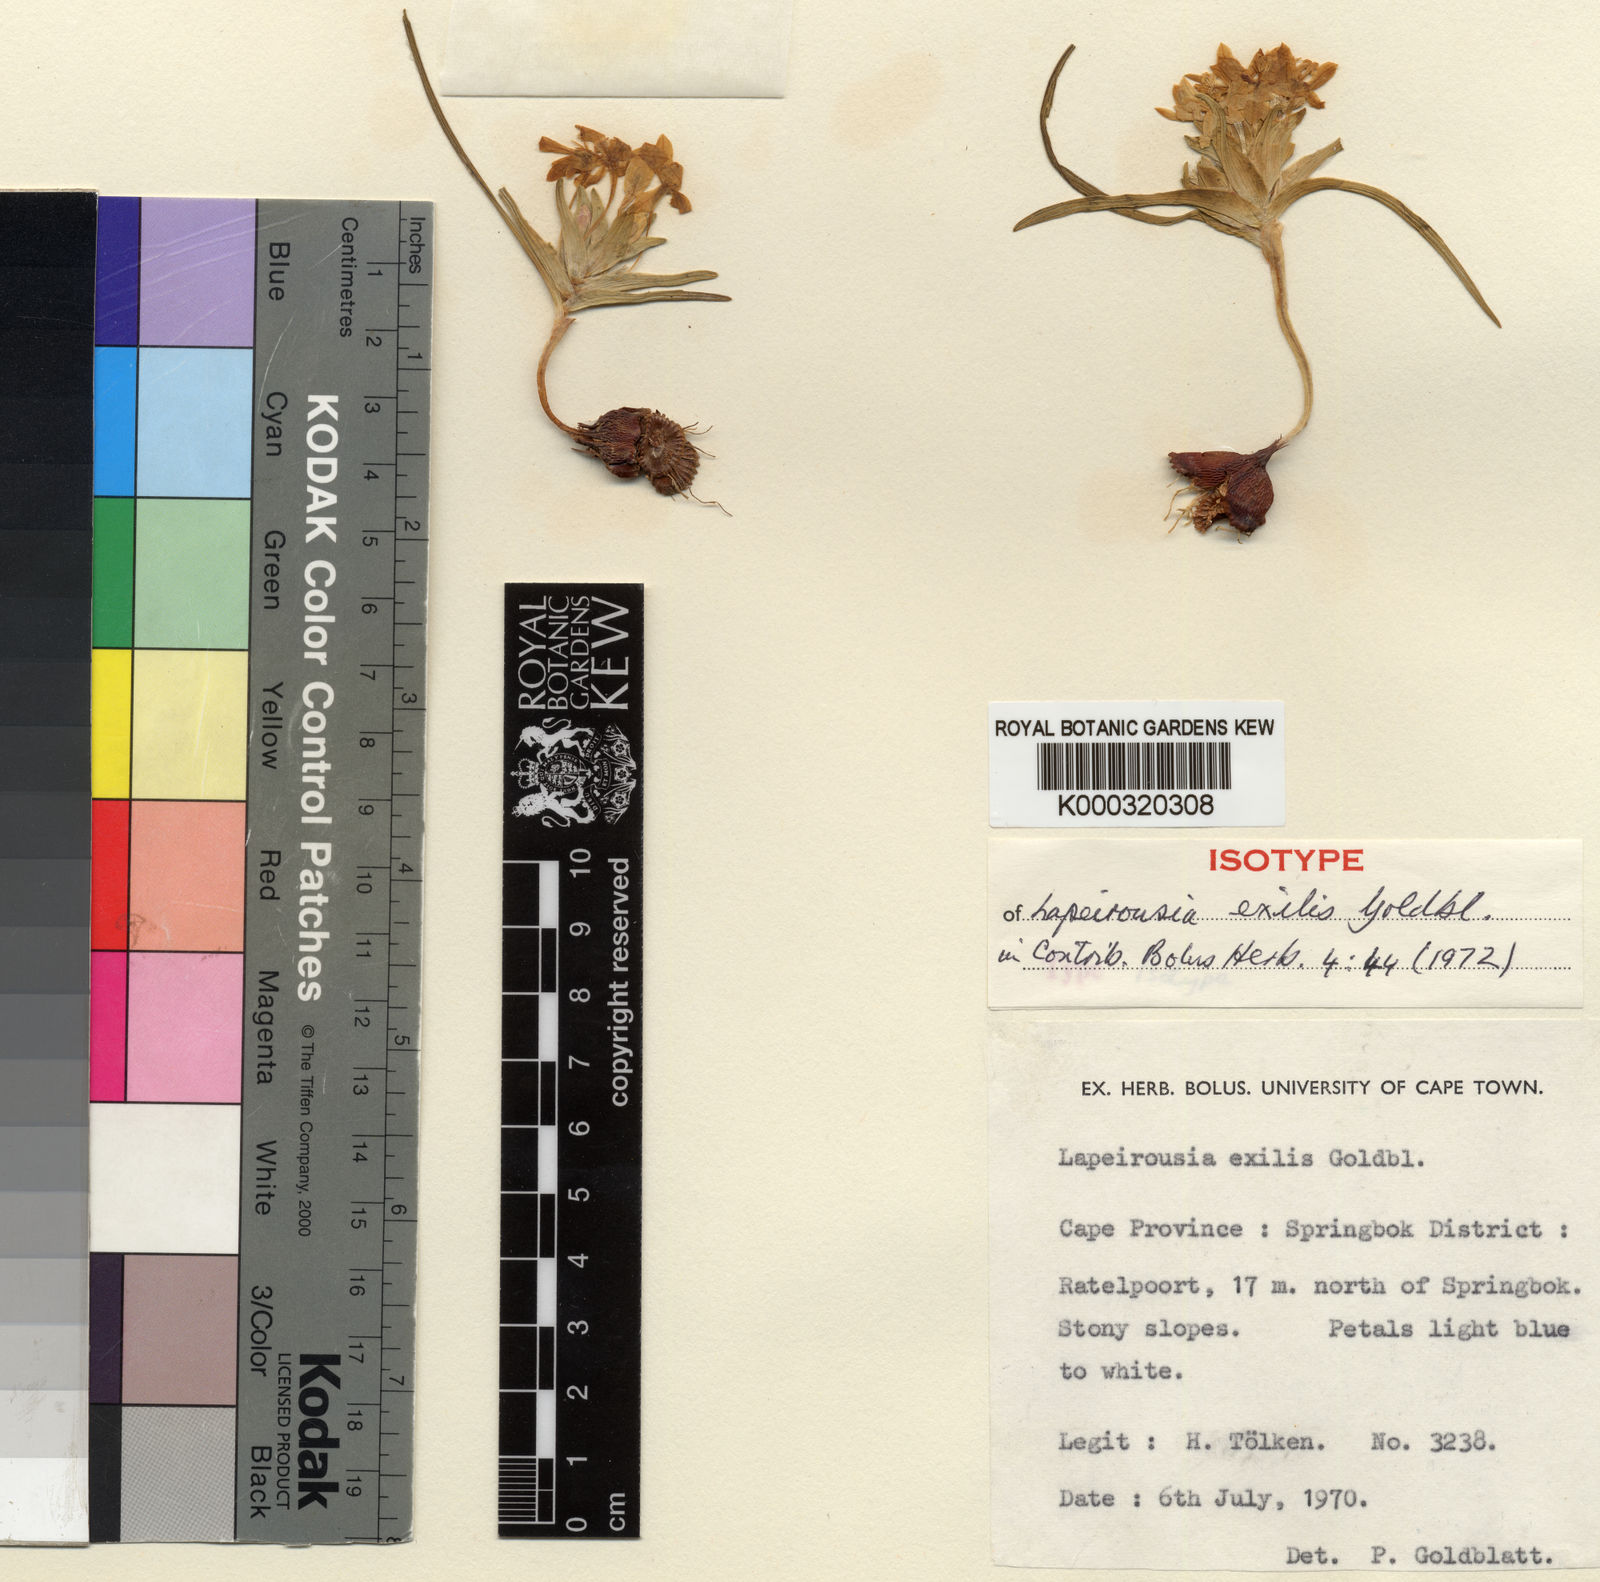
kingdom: Plantae
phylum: Tracheophyta
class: Liliopsida
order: Asparagales
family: Iridaceae
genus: Lapeirousia
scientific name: Lapeirousia exilis
